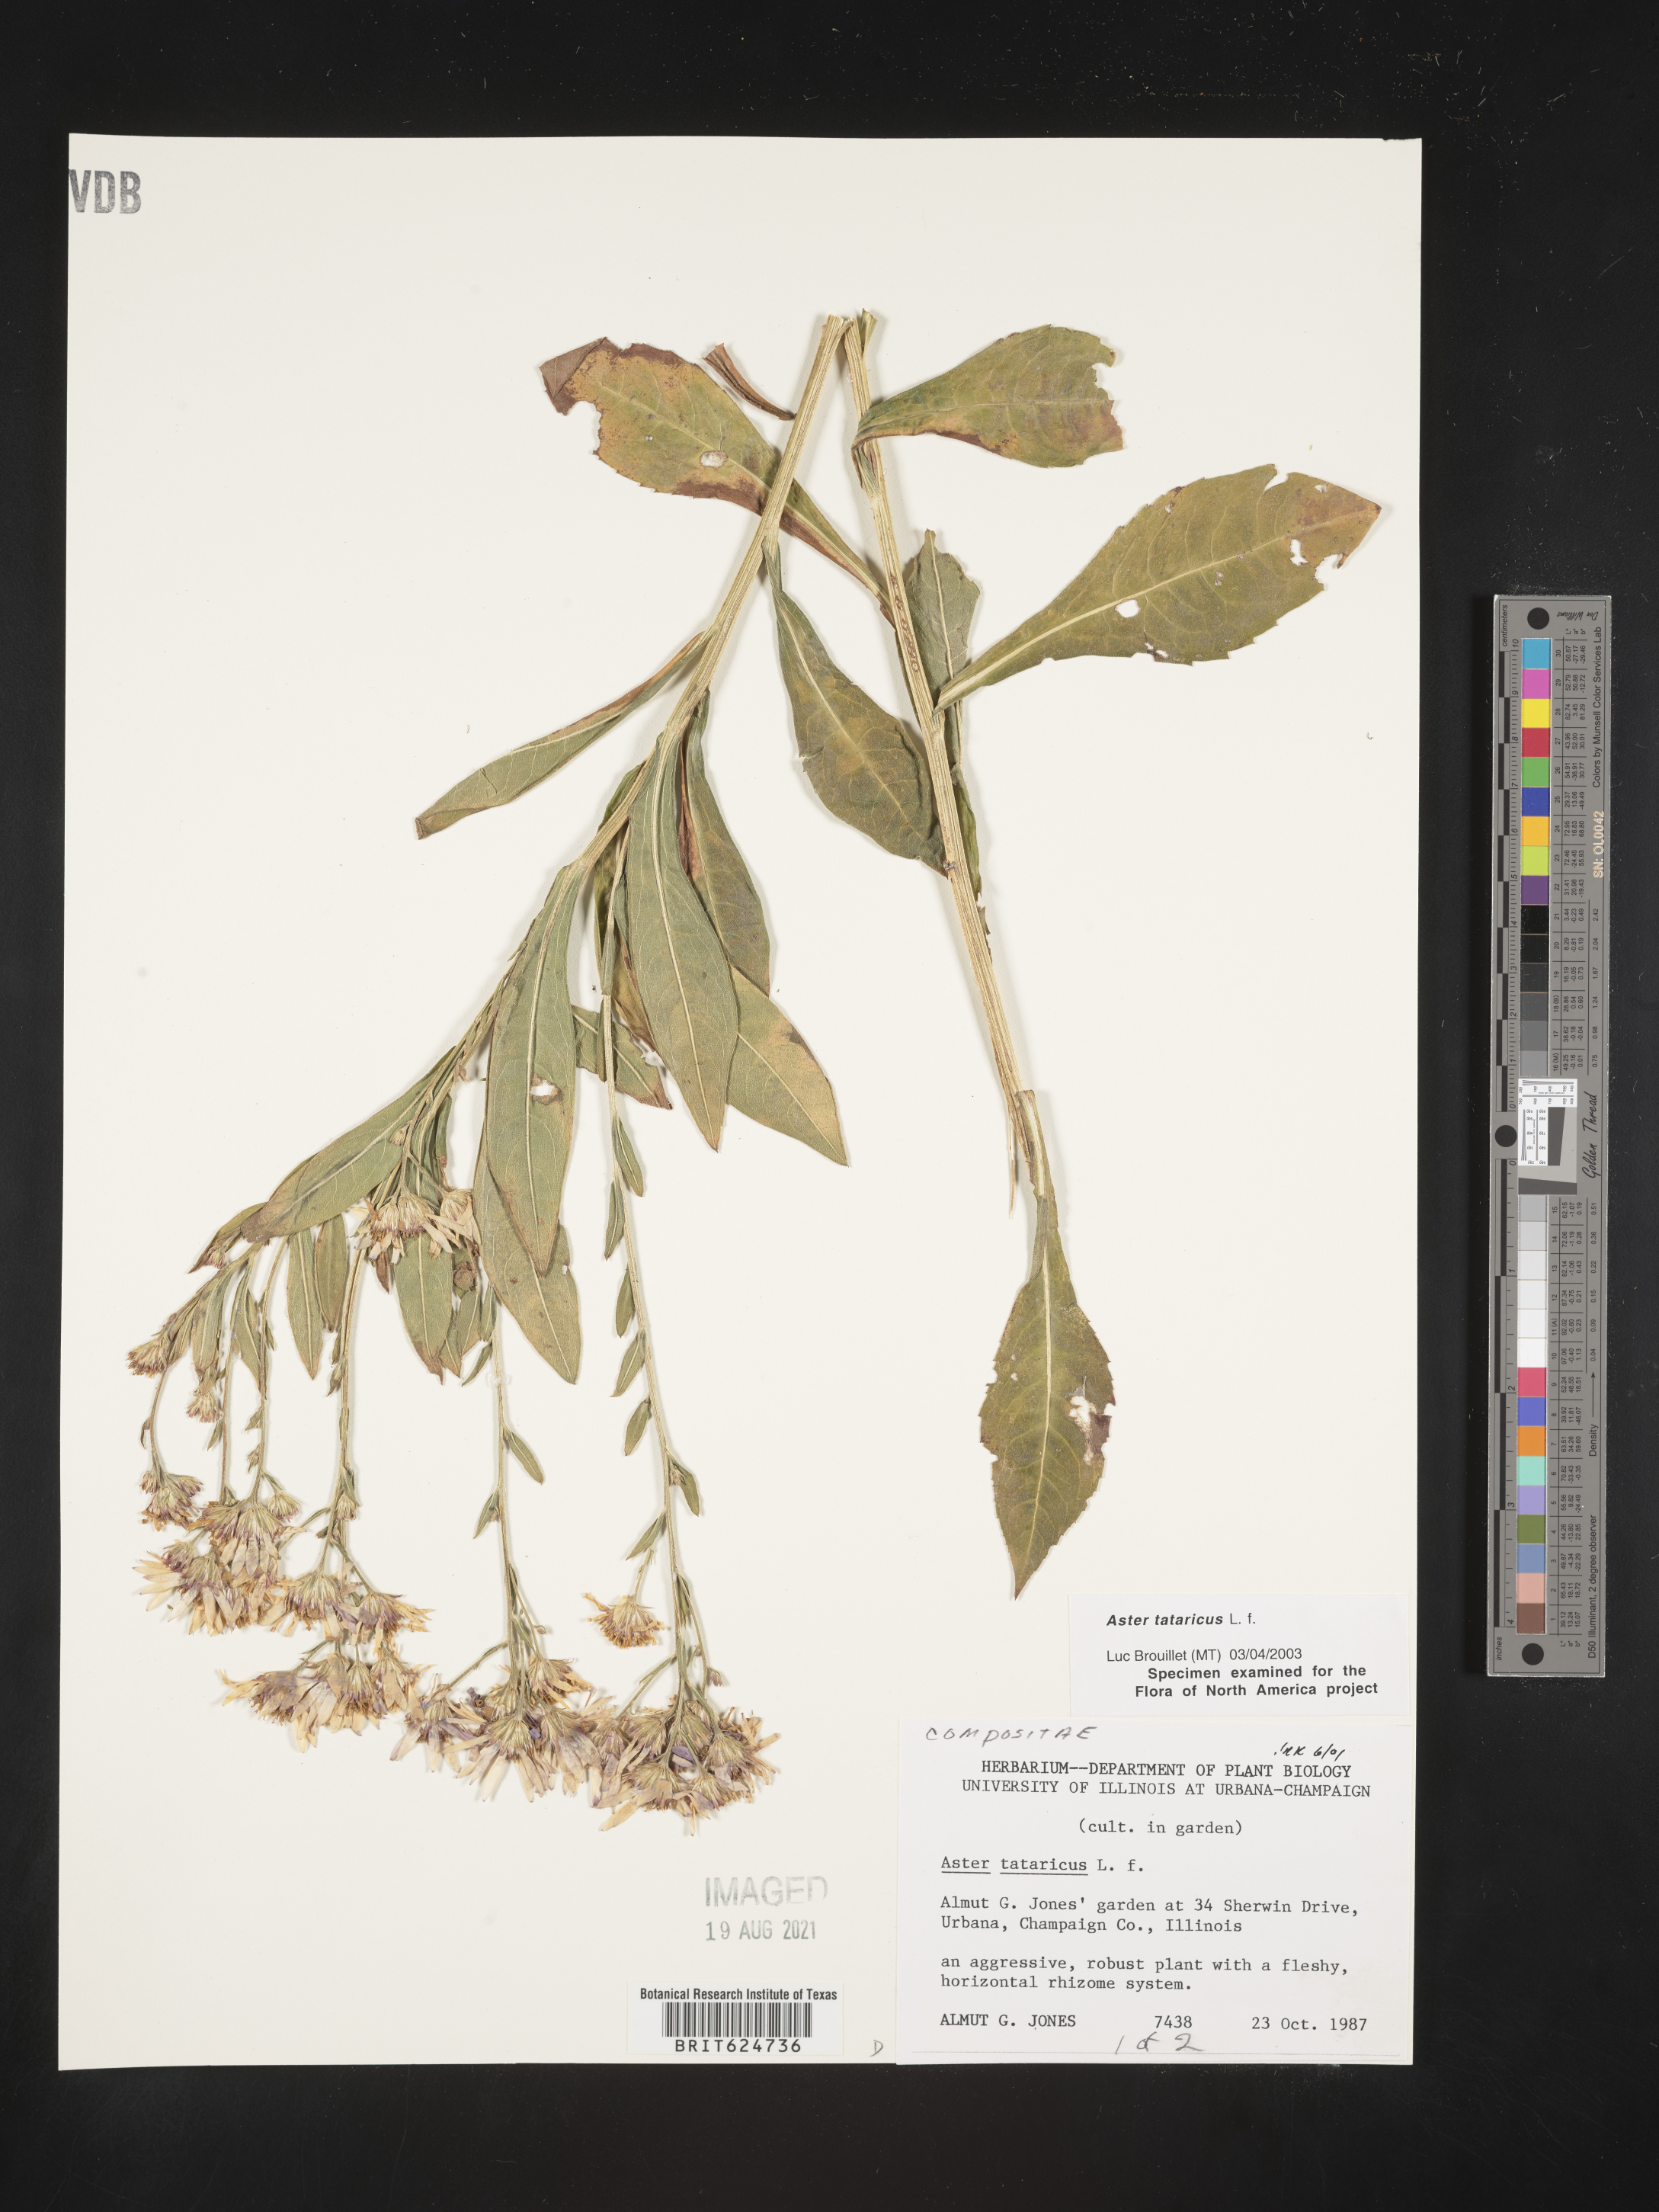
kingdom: Plantae
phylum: Tracheophyta
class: Magnoliopsida
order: Asterales
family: Asteraceae
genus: Aster
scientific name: Aster tataricus
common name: Tatarian aster
